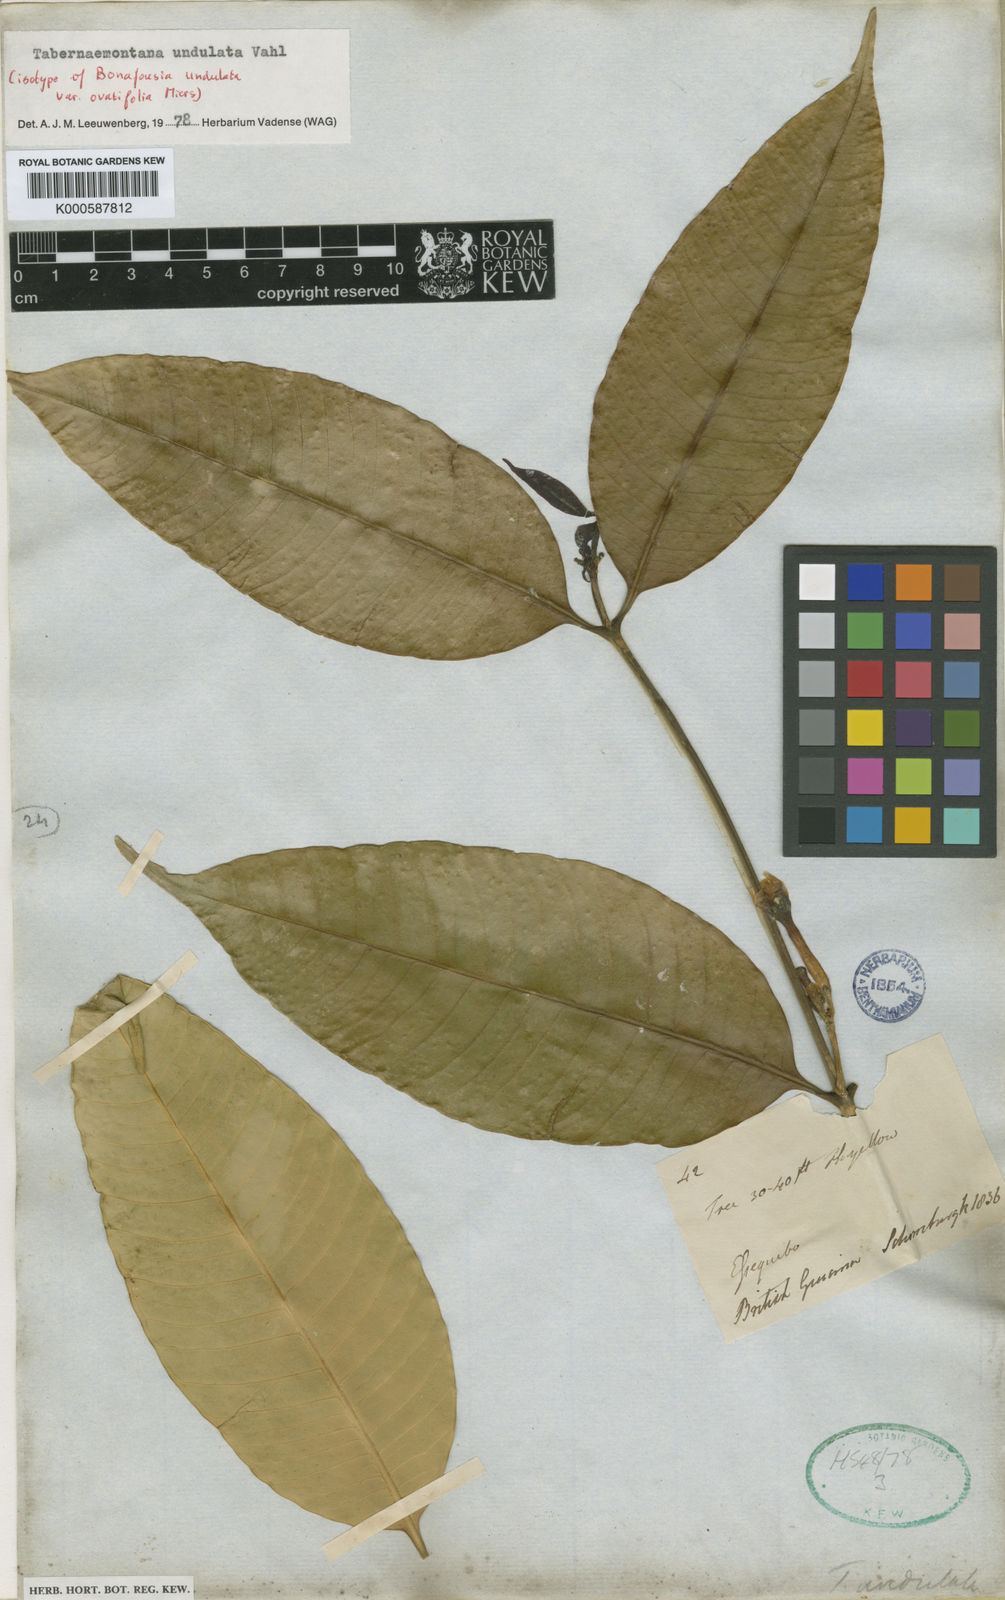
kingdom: Plantae
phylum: Tracheophyta
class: Magnoliopsida
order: Gentianales
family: Apocynaceae
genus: Tabernaemontana
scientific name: Tabernaemontana undulata
